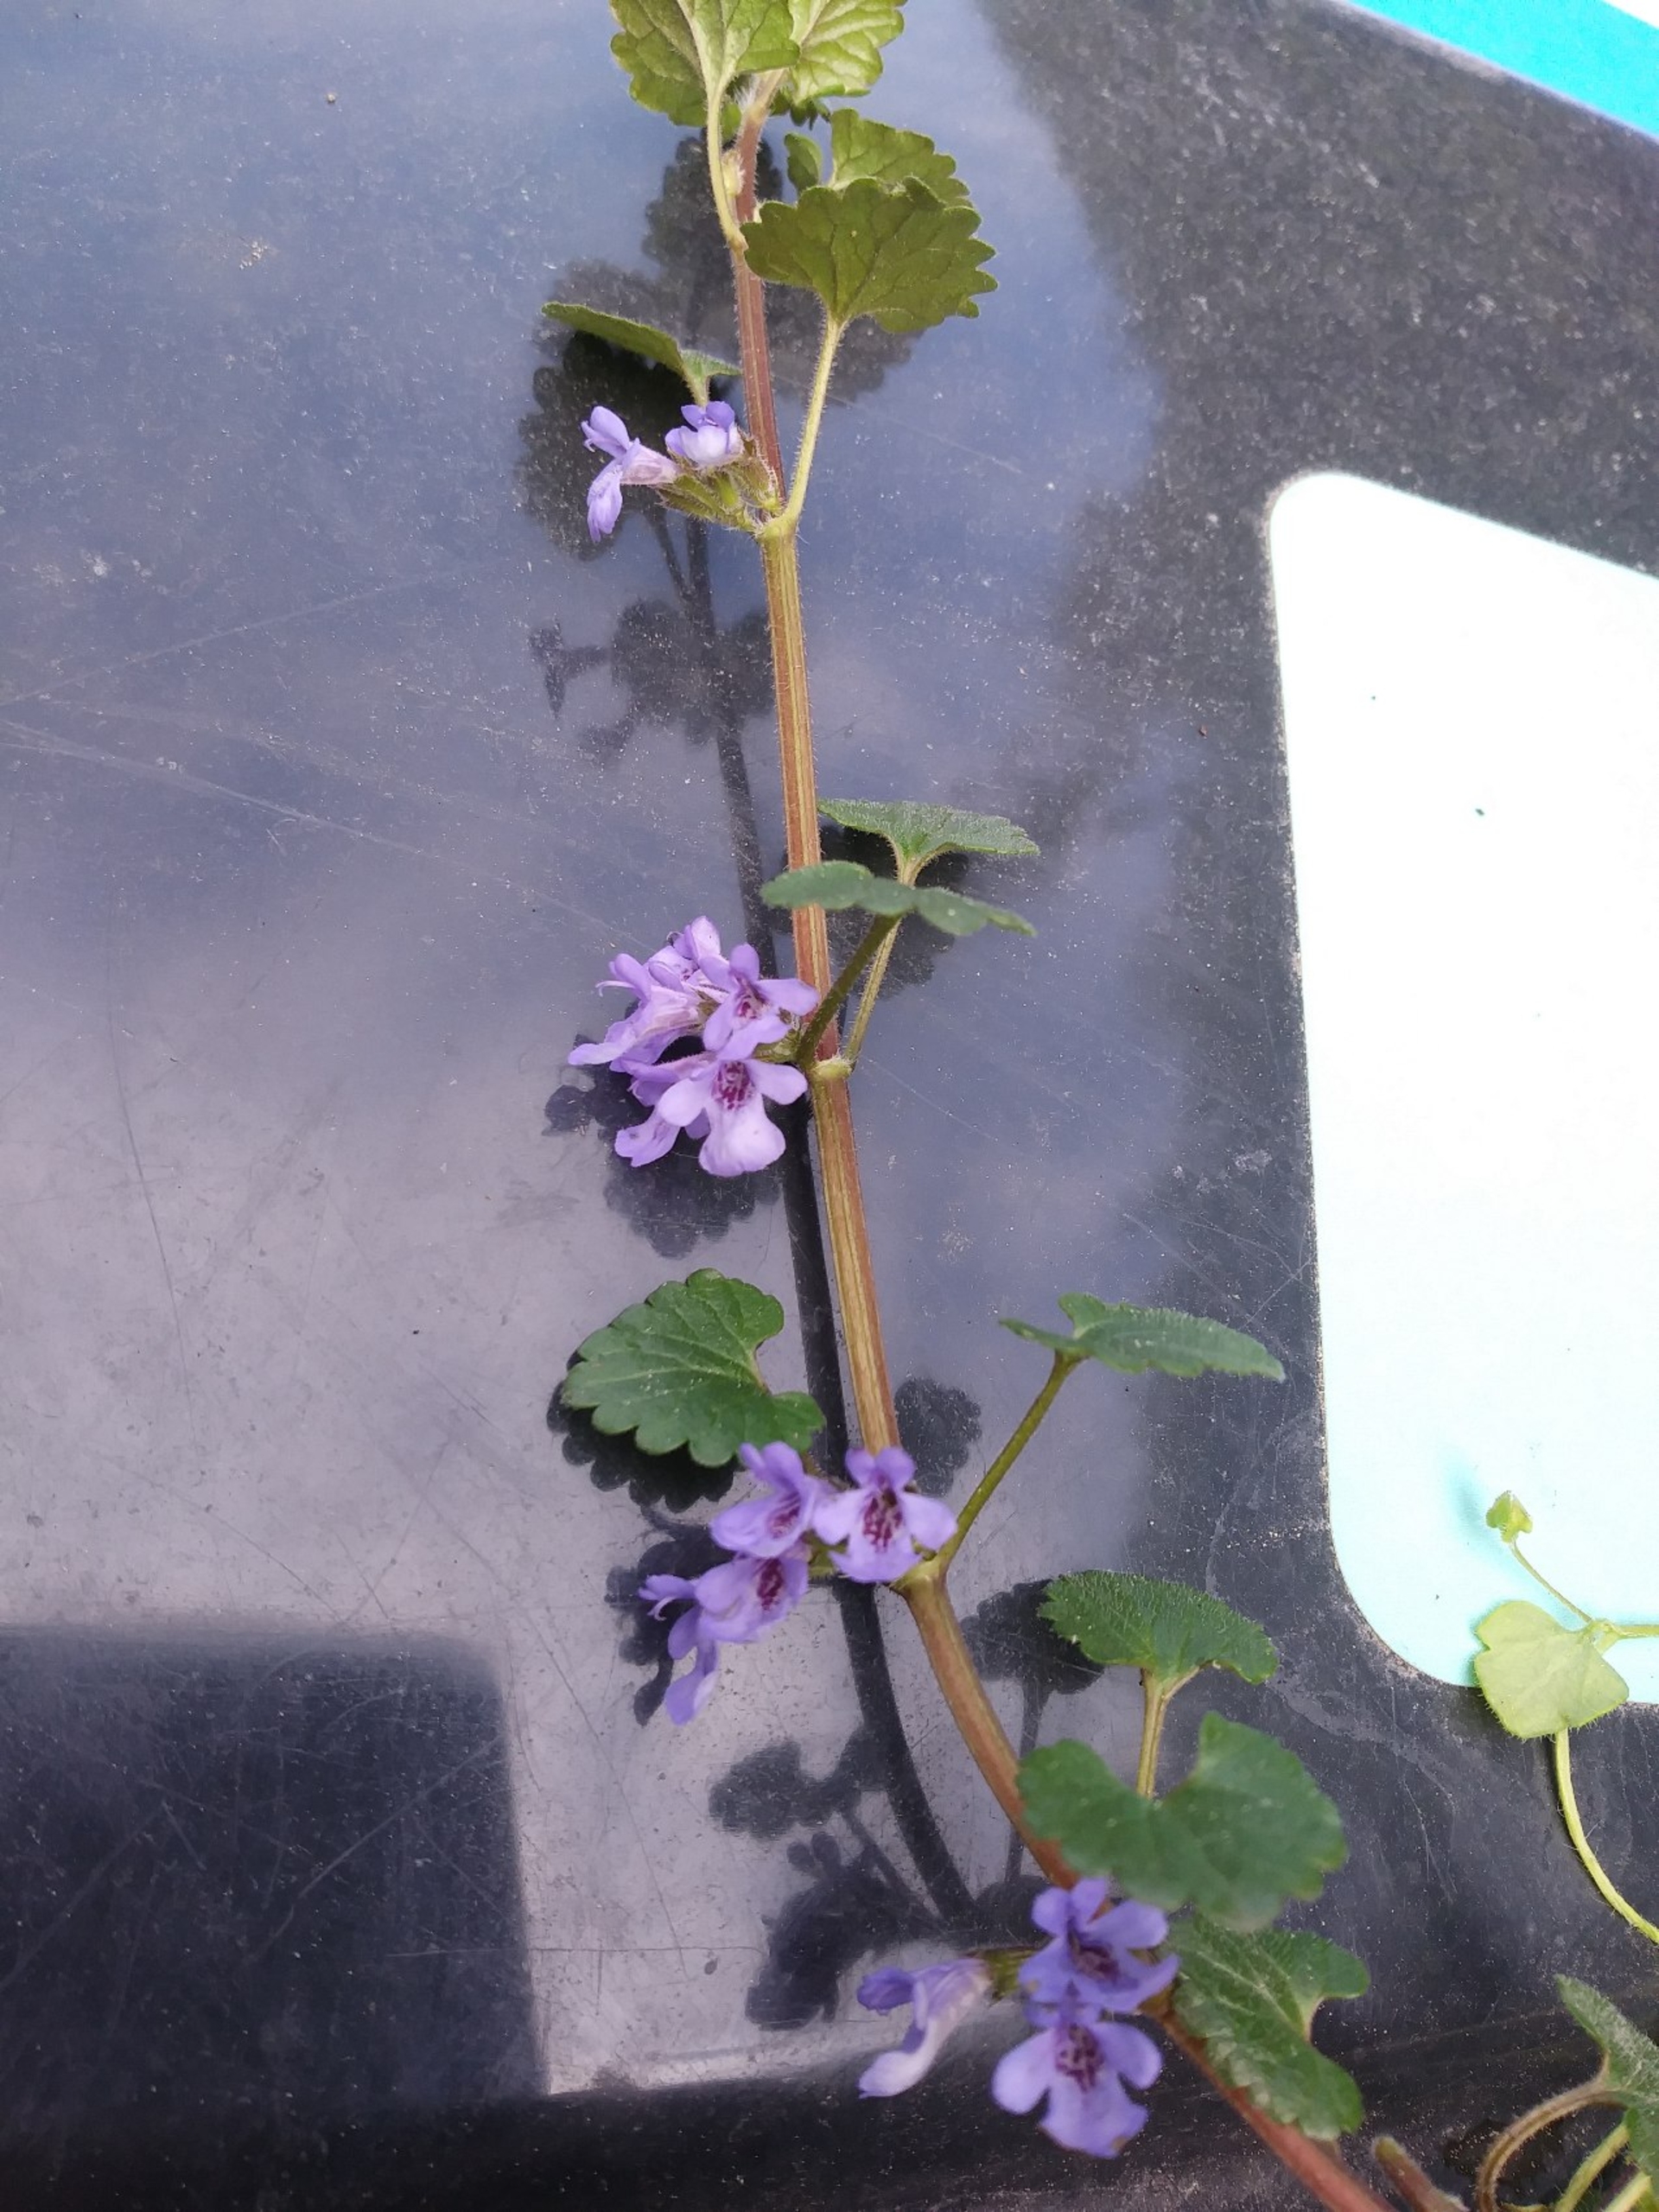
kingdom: Plantae
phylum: Tracheophyta
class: Magnoliopsida
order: Lamiales
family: Lamiaceae
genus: Glechoma
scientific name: Glechoma hederacea
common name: Korsknap
